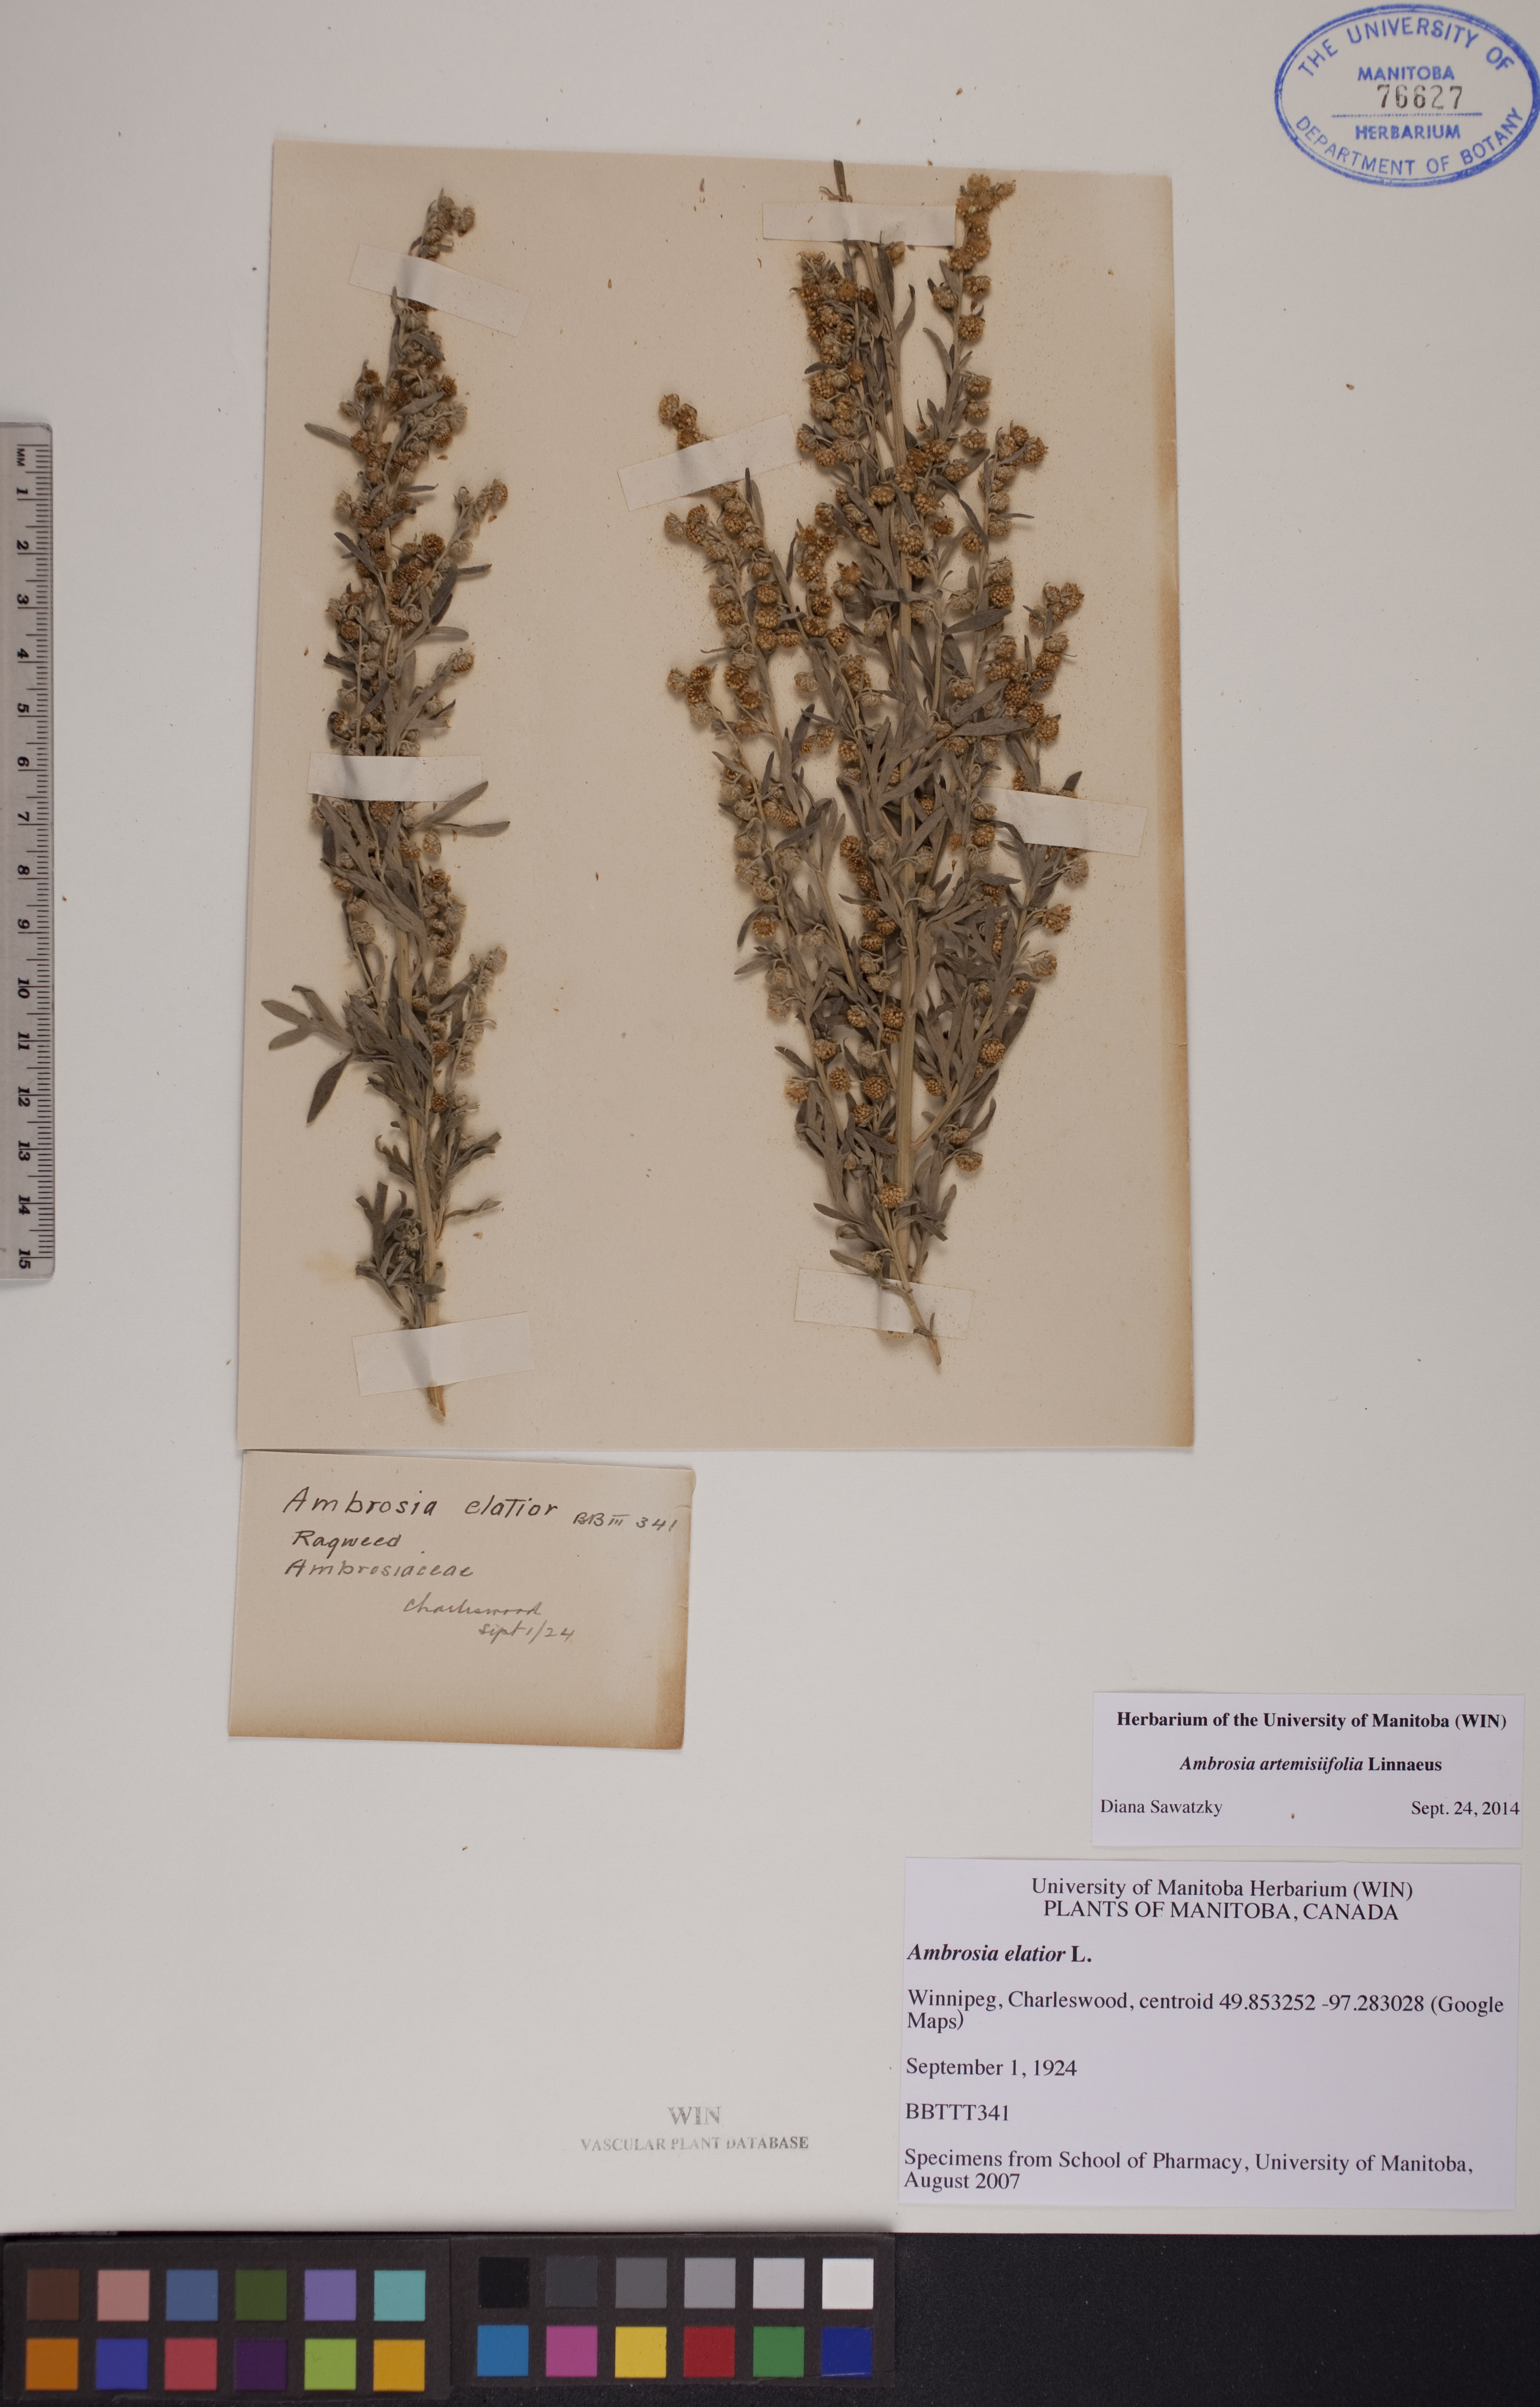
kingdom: Plantae
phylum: Tracheophyta
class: Magnoliopsida
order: Asterales
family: Asteraceae
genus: Ambrosia
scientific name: Ambrosia artemisiifolia
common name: Annual ragweed
